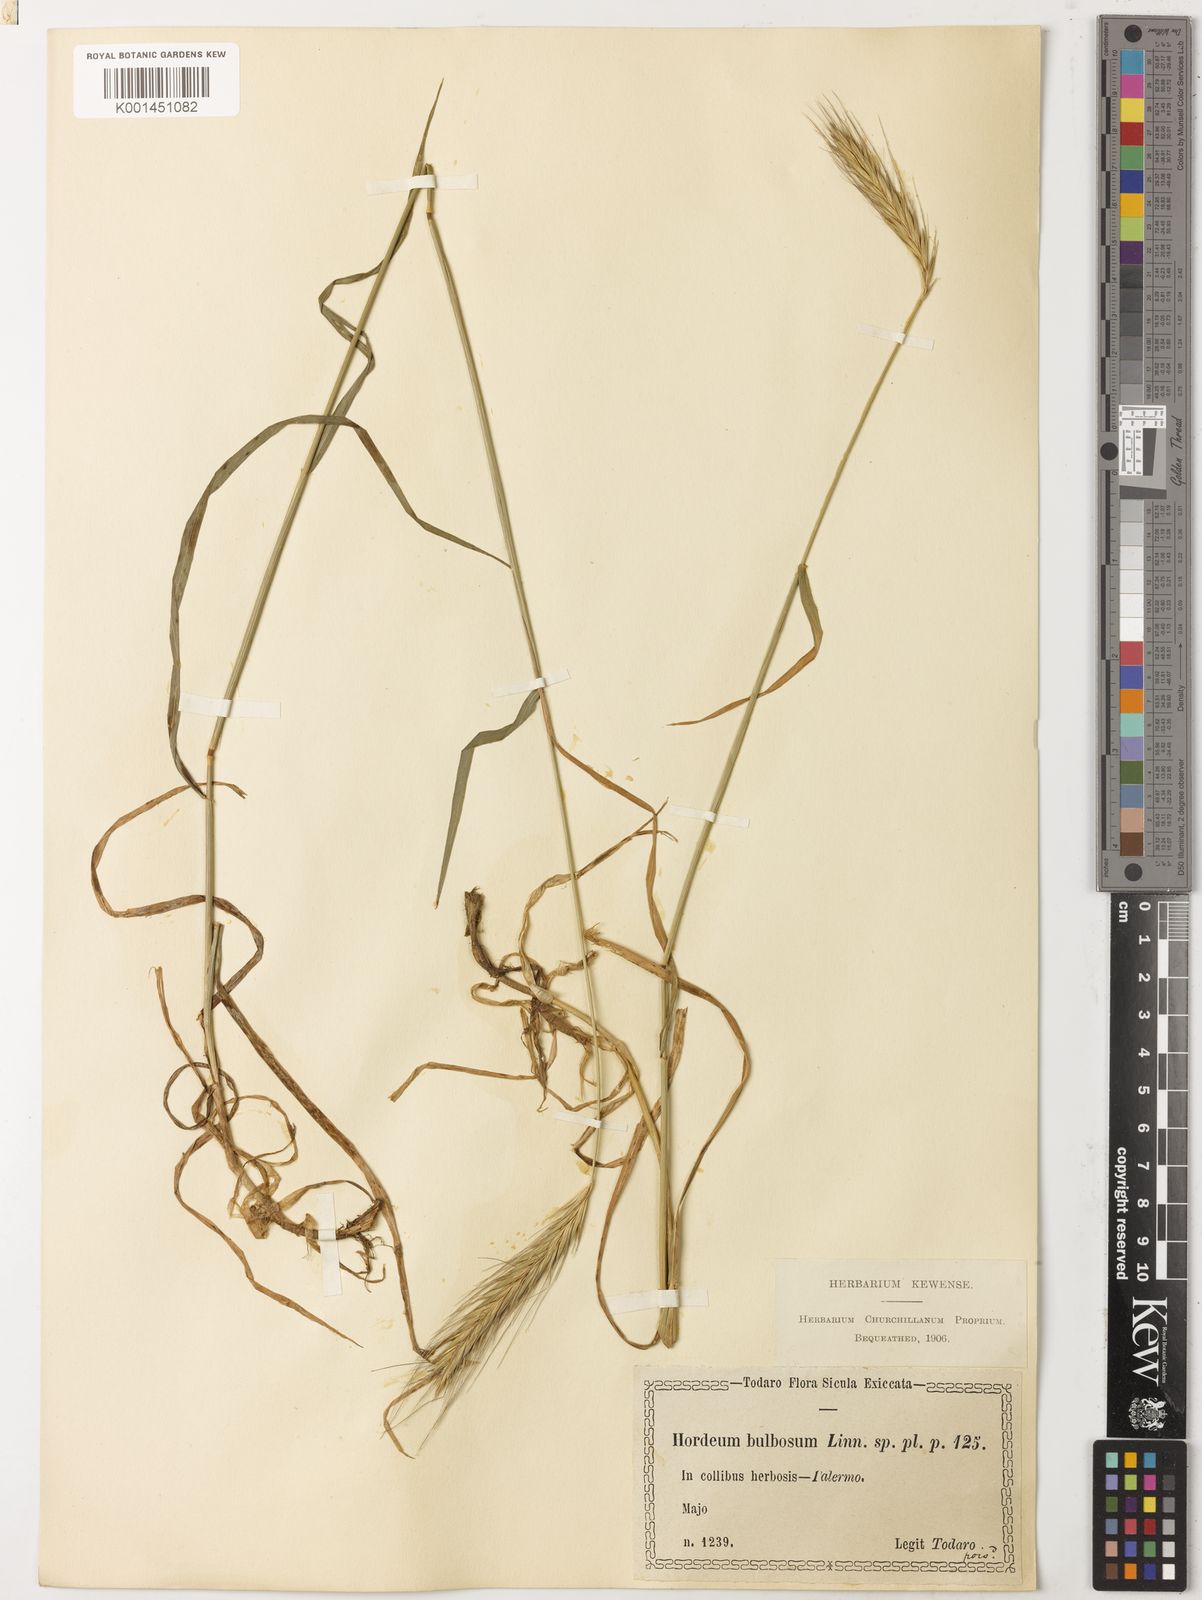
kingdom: Plantae
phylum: Tracheophyta
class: Liliopsida
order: Poales
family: Poaceae
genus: Hordeum
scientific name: Hordeum bulbosum
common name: Bulbous barley
